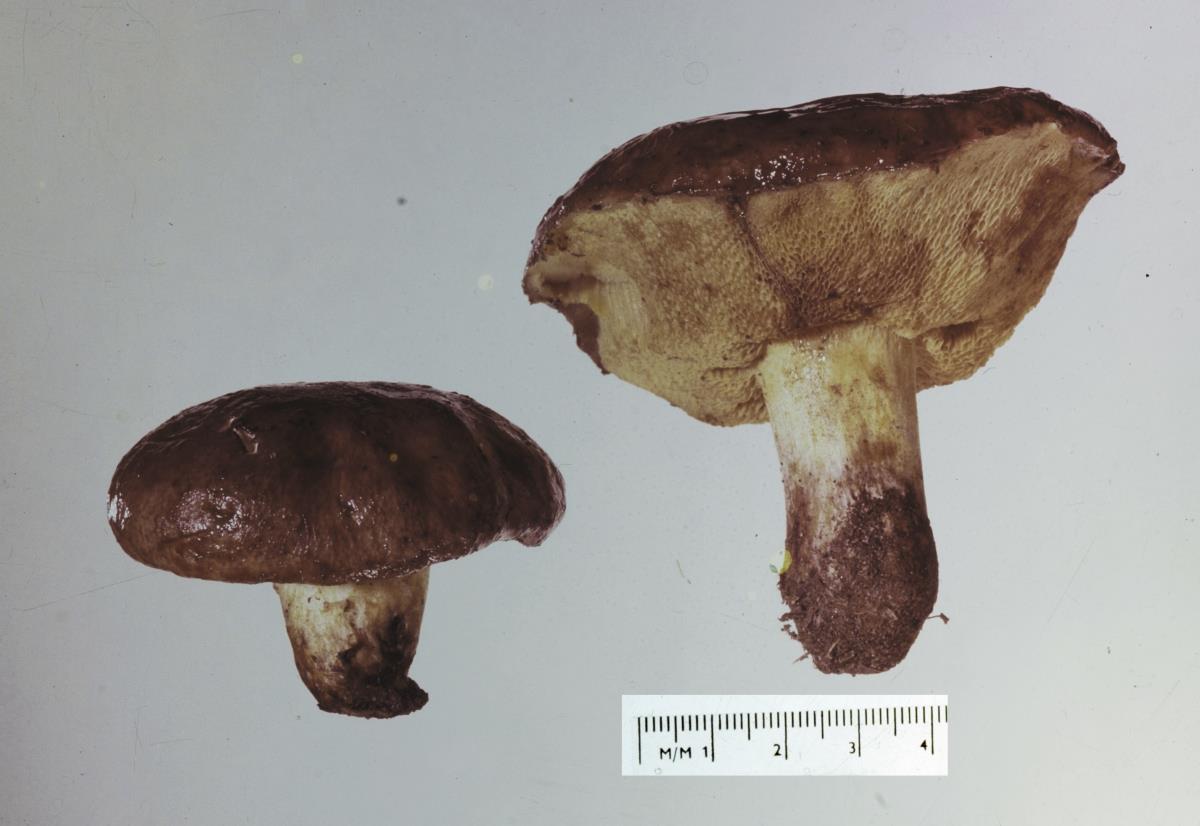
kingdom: Fungi
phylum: Basidiomycota
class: Agaricomycetes
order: Boletales
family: Suillaceae
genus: Suillus
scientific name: Suillus brevipes
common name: Short-stalked suillus
